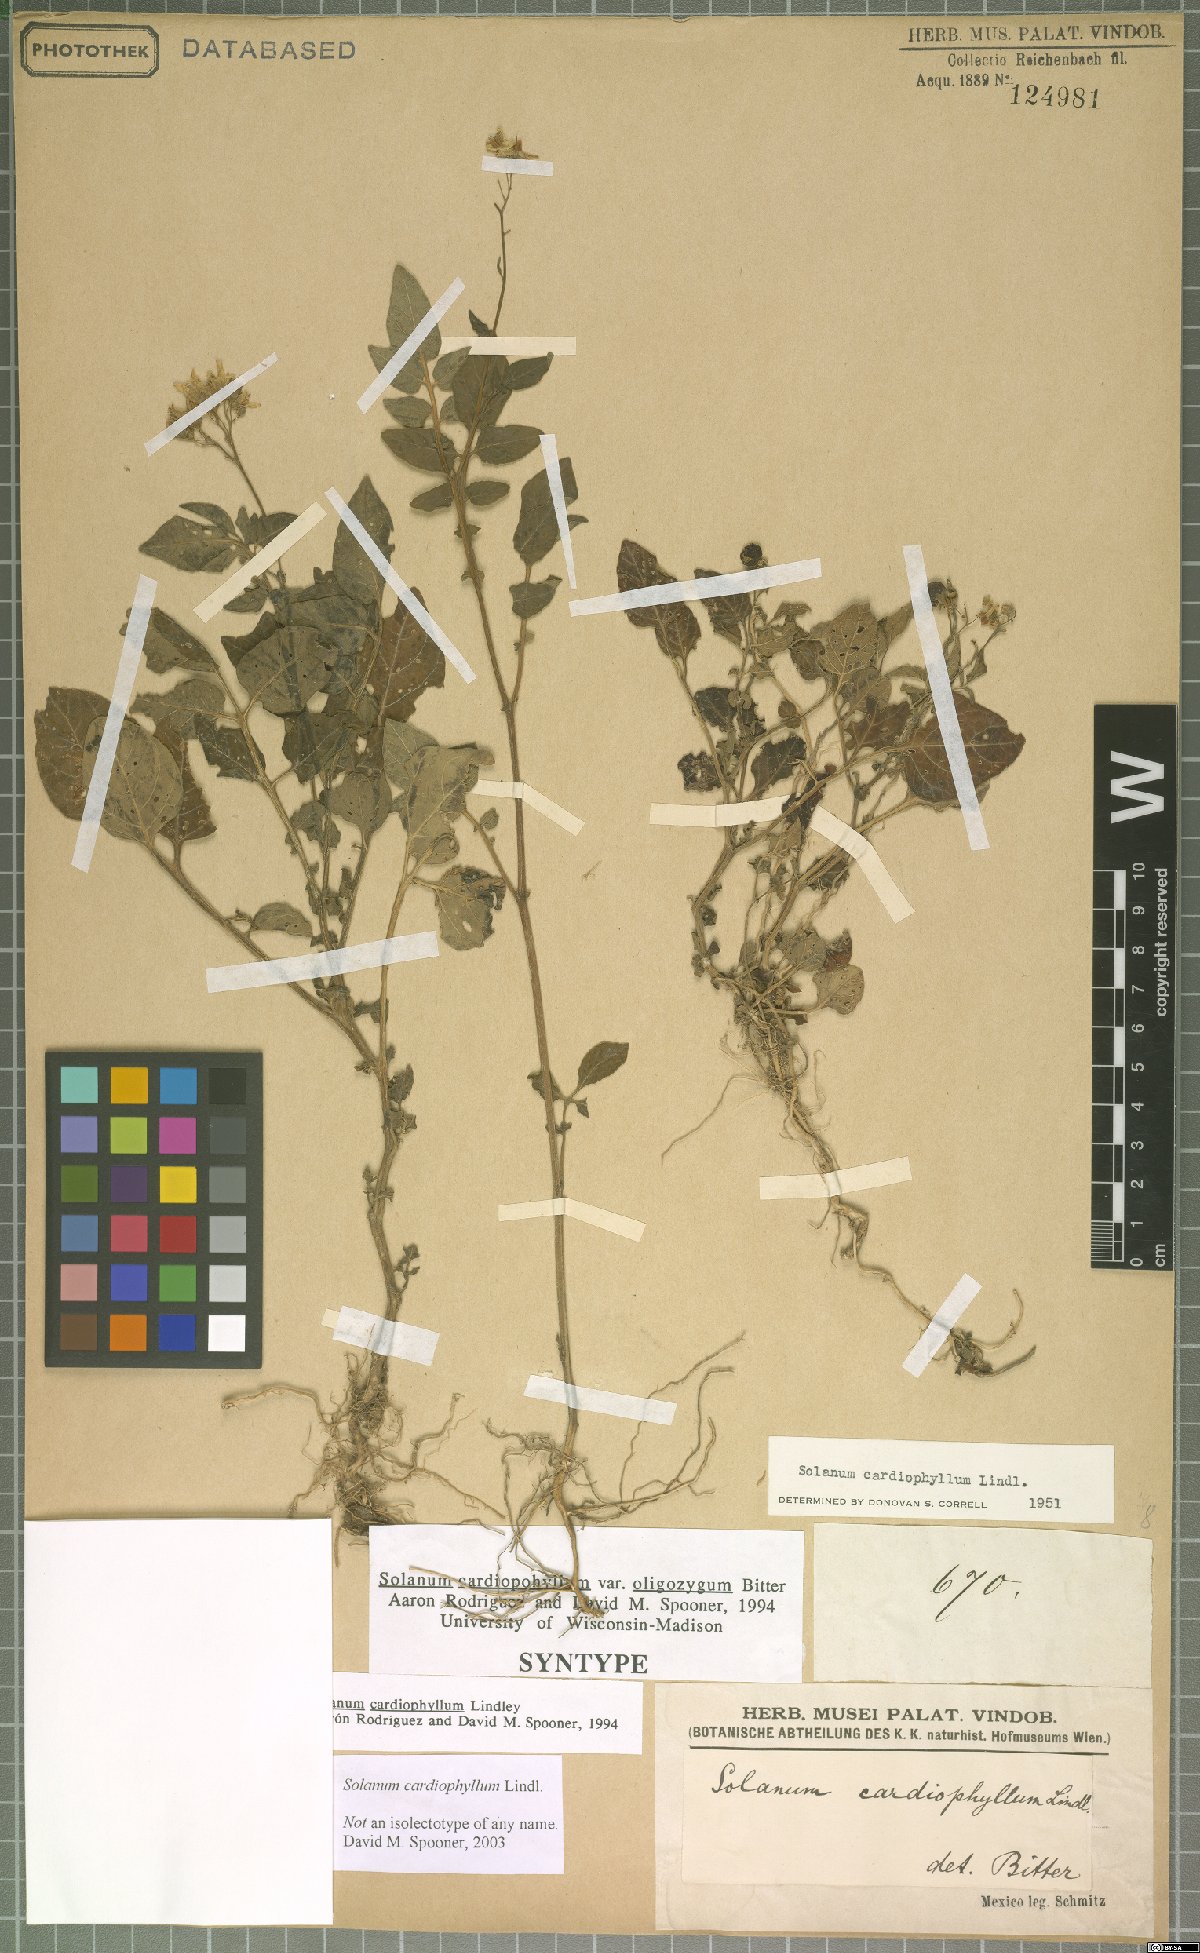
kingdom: Plantae
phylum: Tracheophyta
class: Magnoliopsida
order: Solanales
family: Solanaceae
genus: Solanum
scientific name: Solanum cardiophyllum
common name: Heartleaf horsenettle
